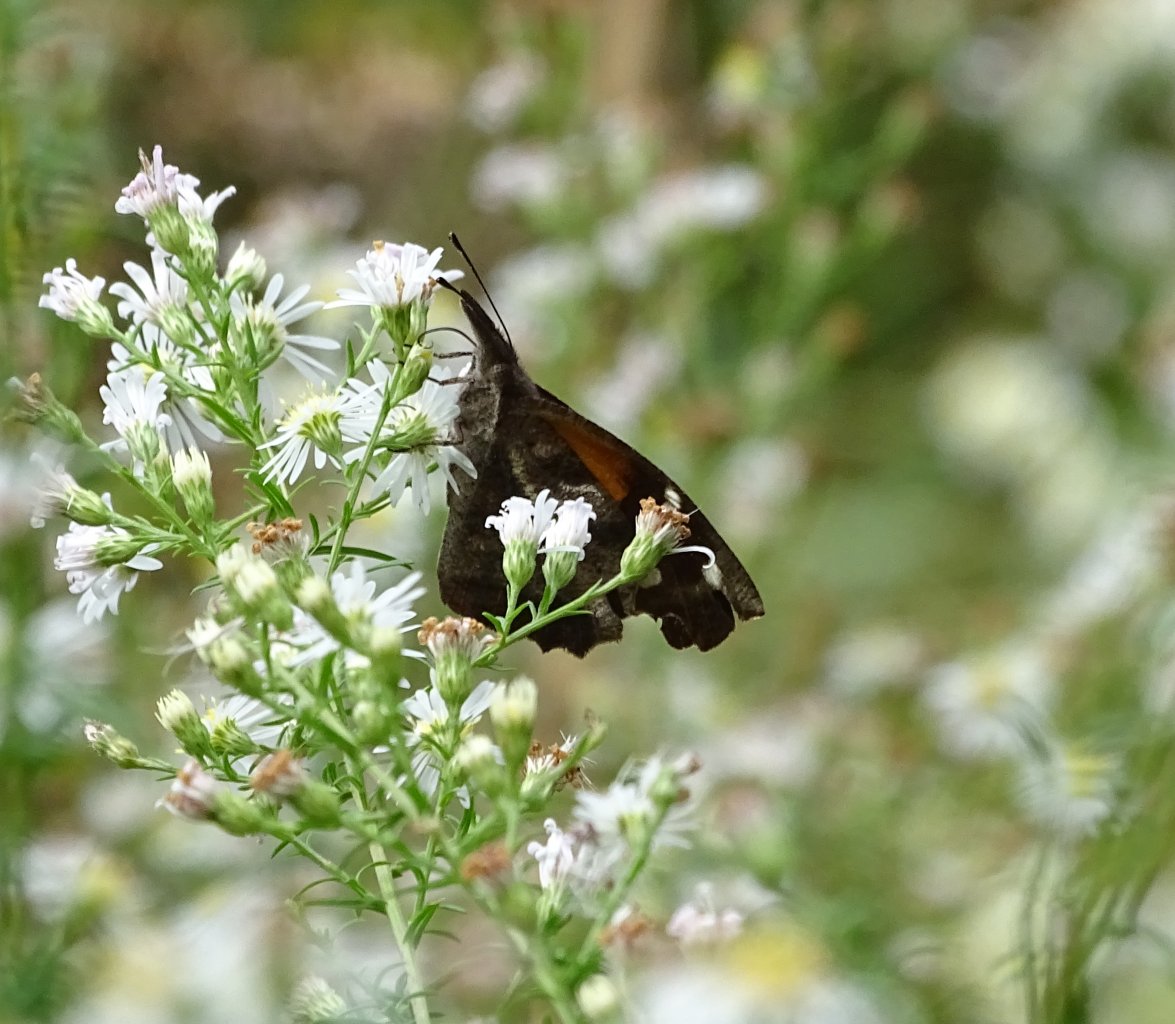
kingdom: Animalia
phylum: Arthropoda
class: Insecta
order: Lepidoptera
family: Nymphalidae
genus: Libytheana
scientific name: Libytheana carinenta
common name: American Snout
